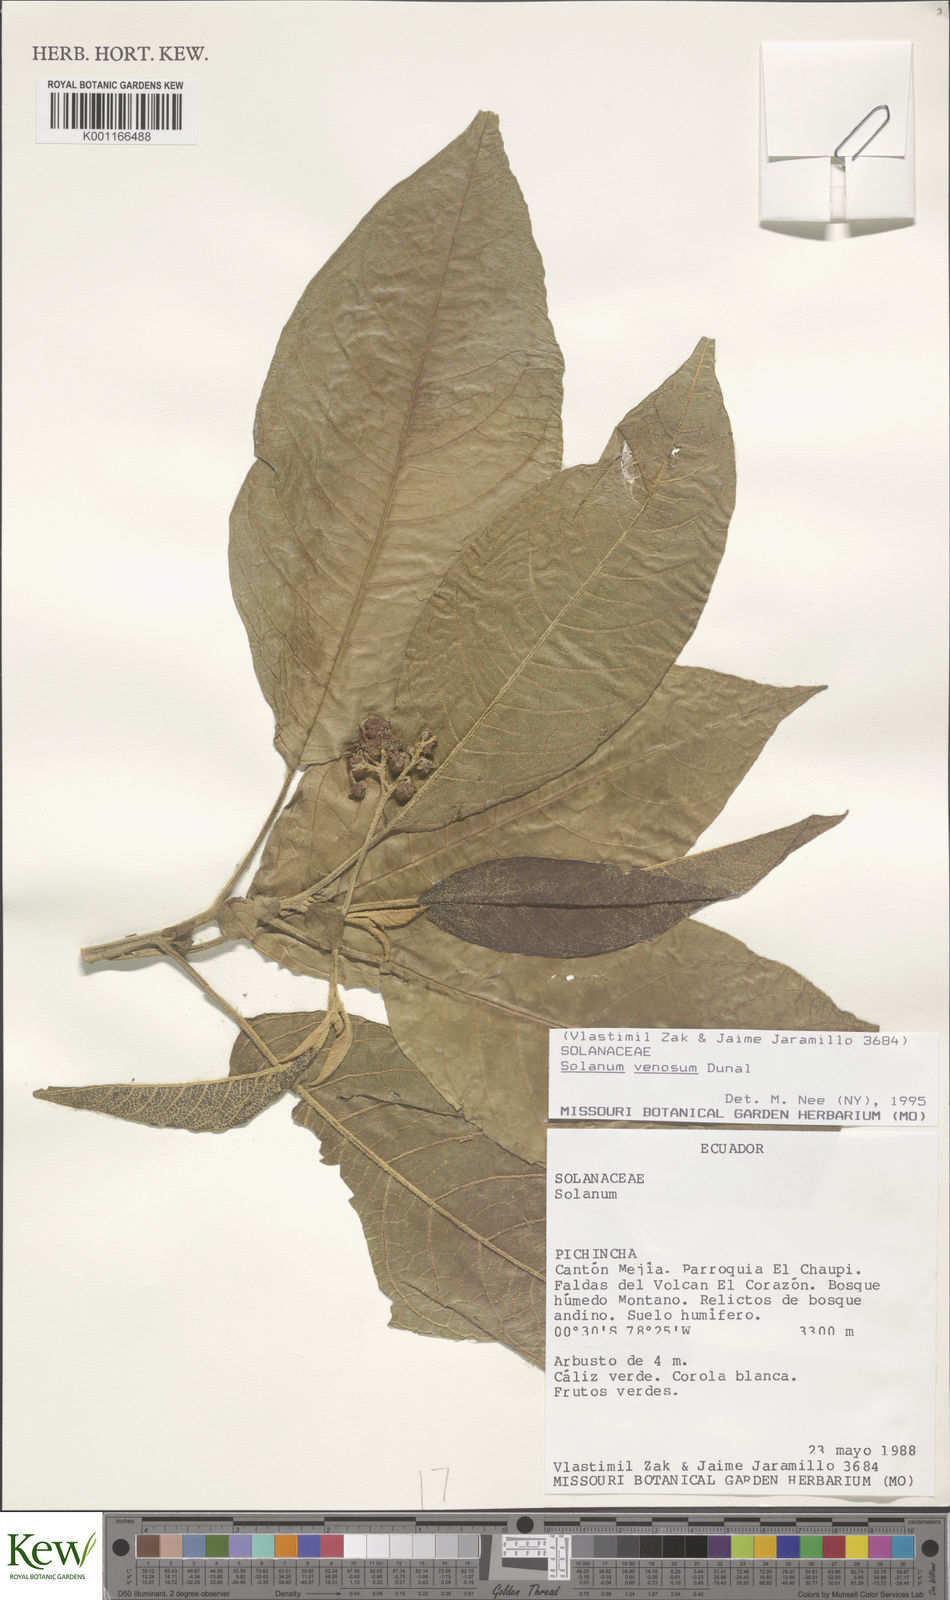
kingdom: Plantae
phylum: Tracheophyta
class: Magnoliopsida
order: Solanales
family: Solanaceae
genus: Solanum
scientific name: Solanum venosum
